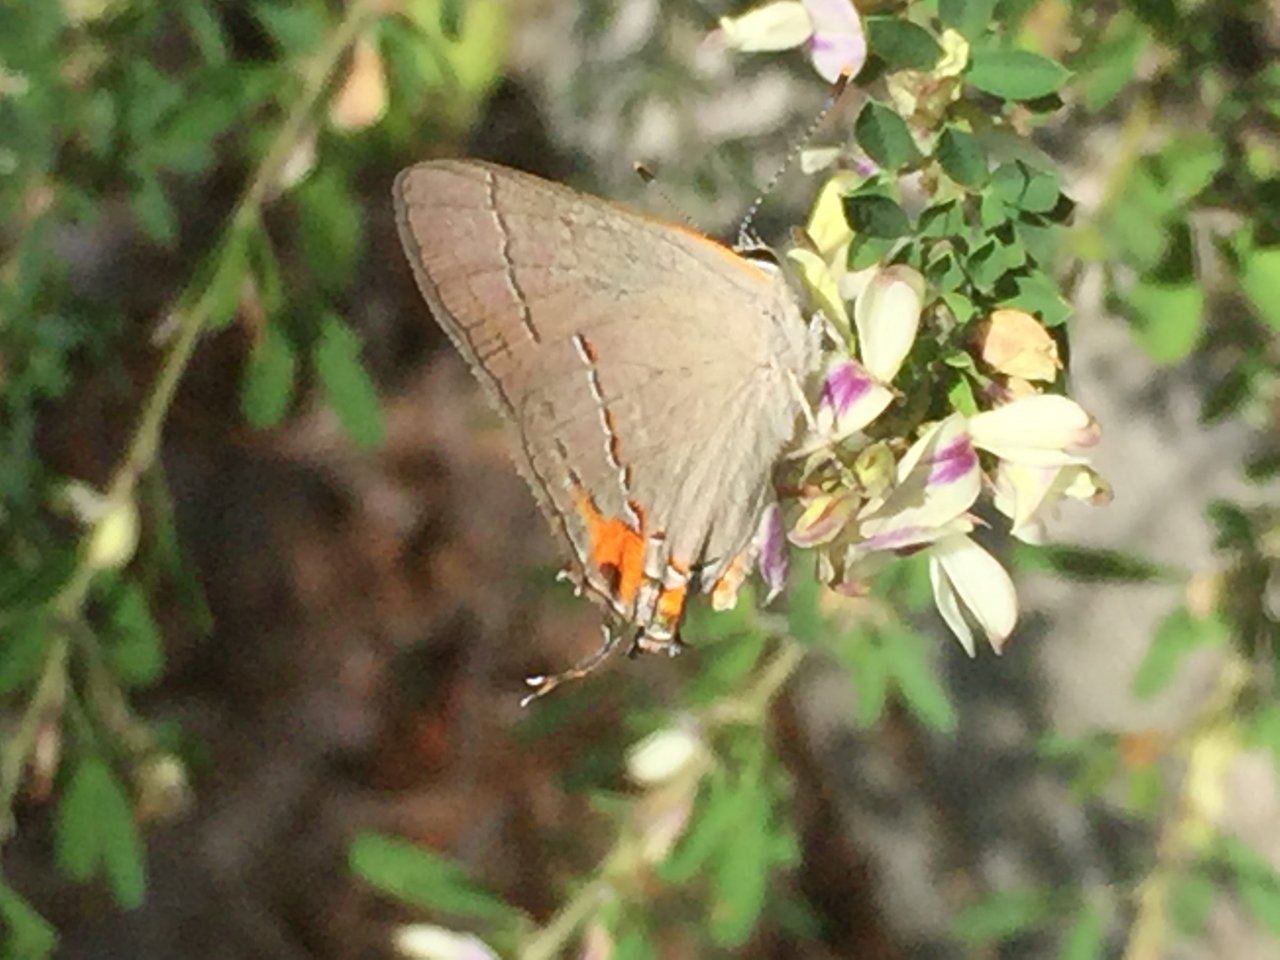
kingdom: Animalia
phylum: Arthropoda
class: Insecta
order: Lepidoptera
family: Lycaenidae
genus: Strymon
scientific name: Strymon melinus
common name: Gray Hairstreak
